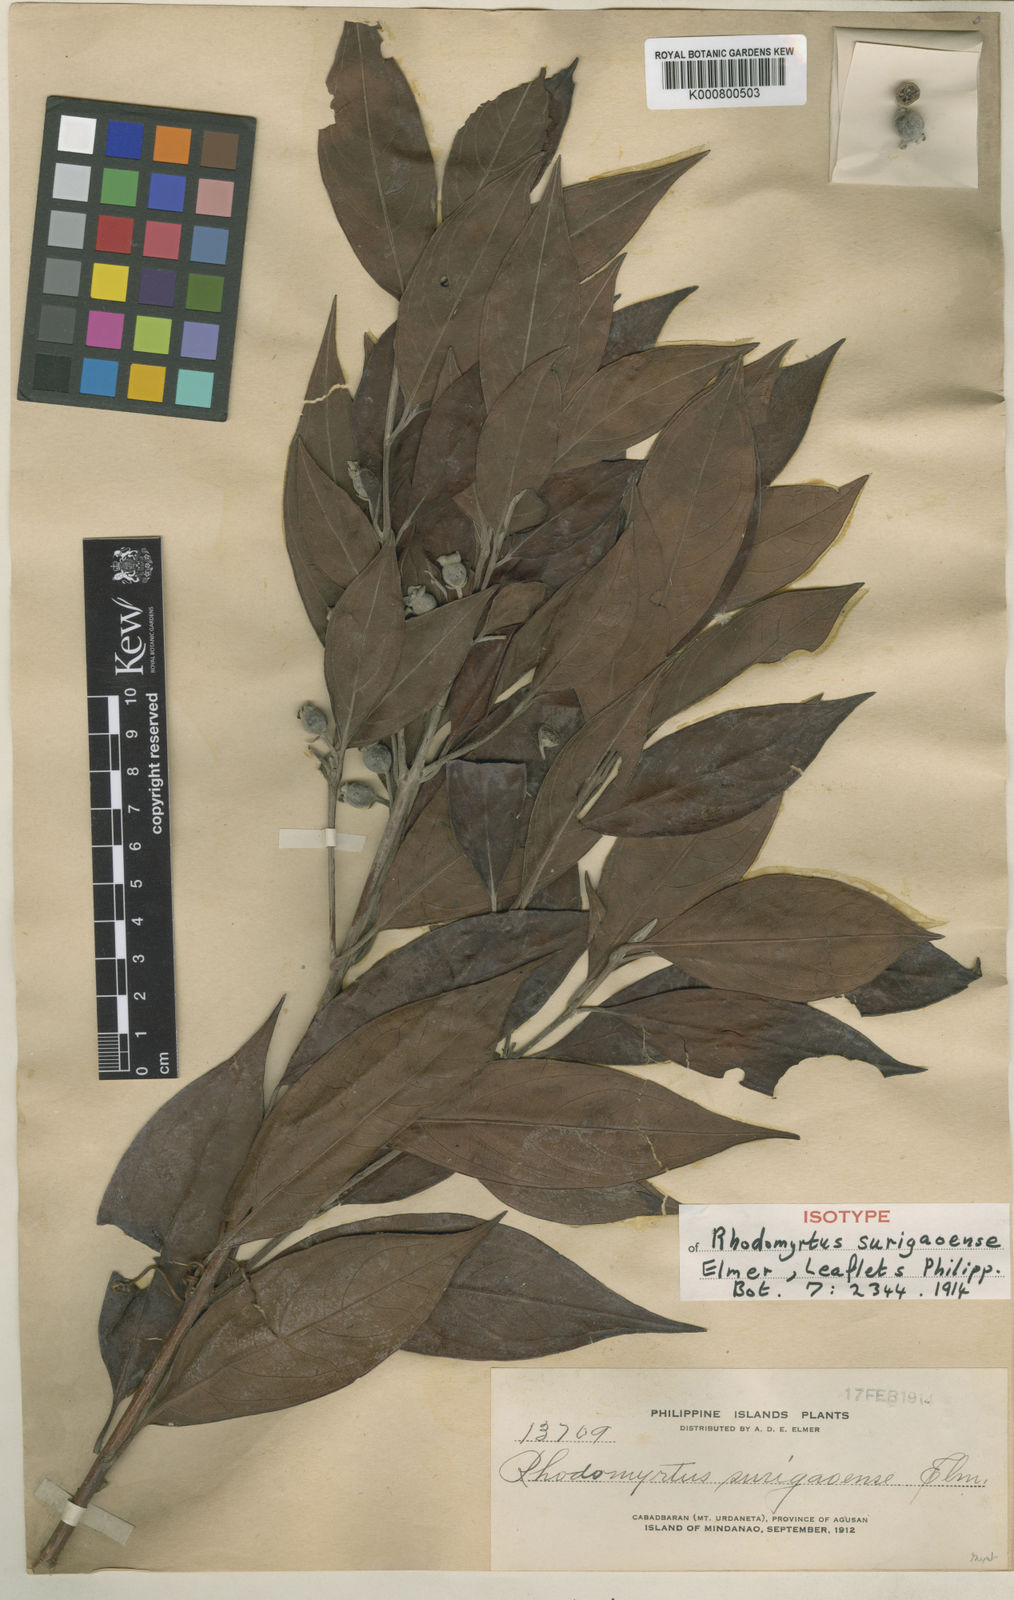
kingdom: Plantae
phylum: Tracheophyta
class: Magnoliopsida
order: Myrtales
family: Myrtaceae
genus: Rhodomyrtus
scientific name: Rhodomyrtus surigaoensis
